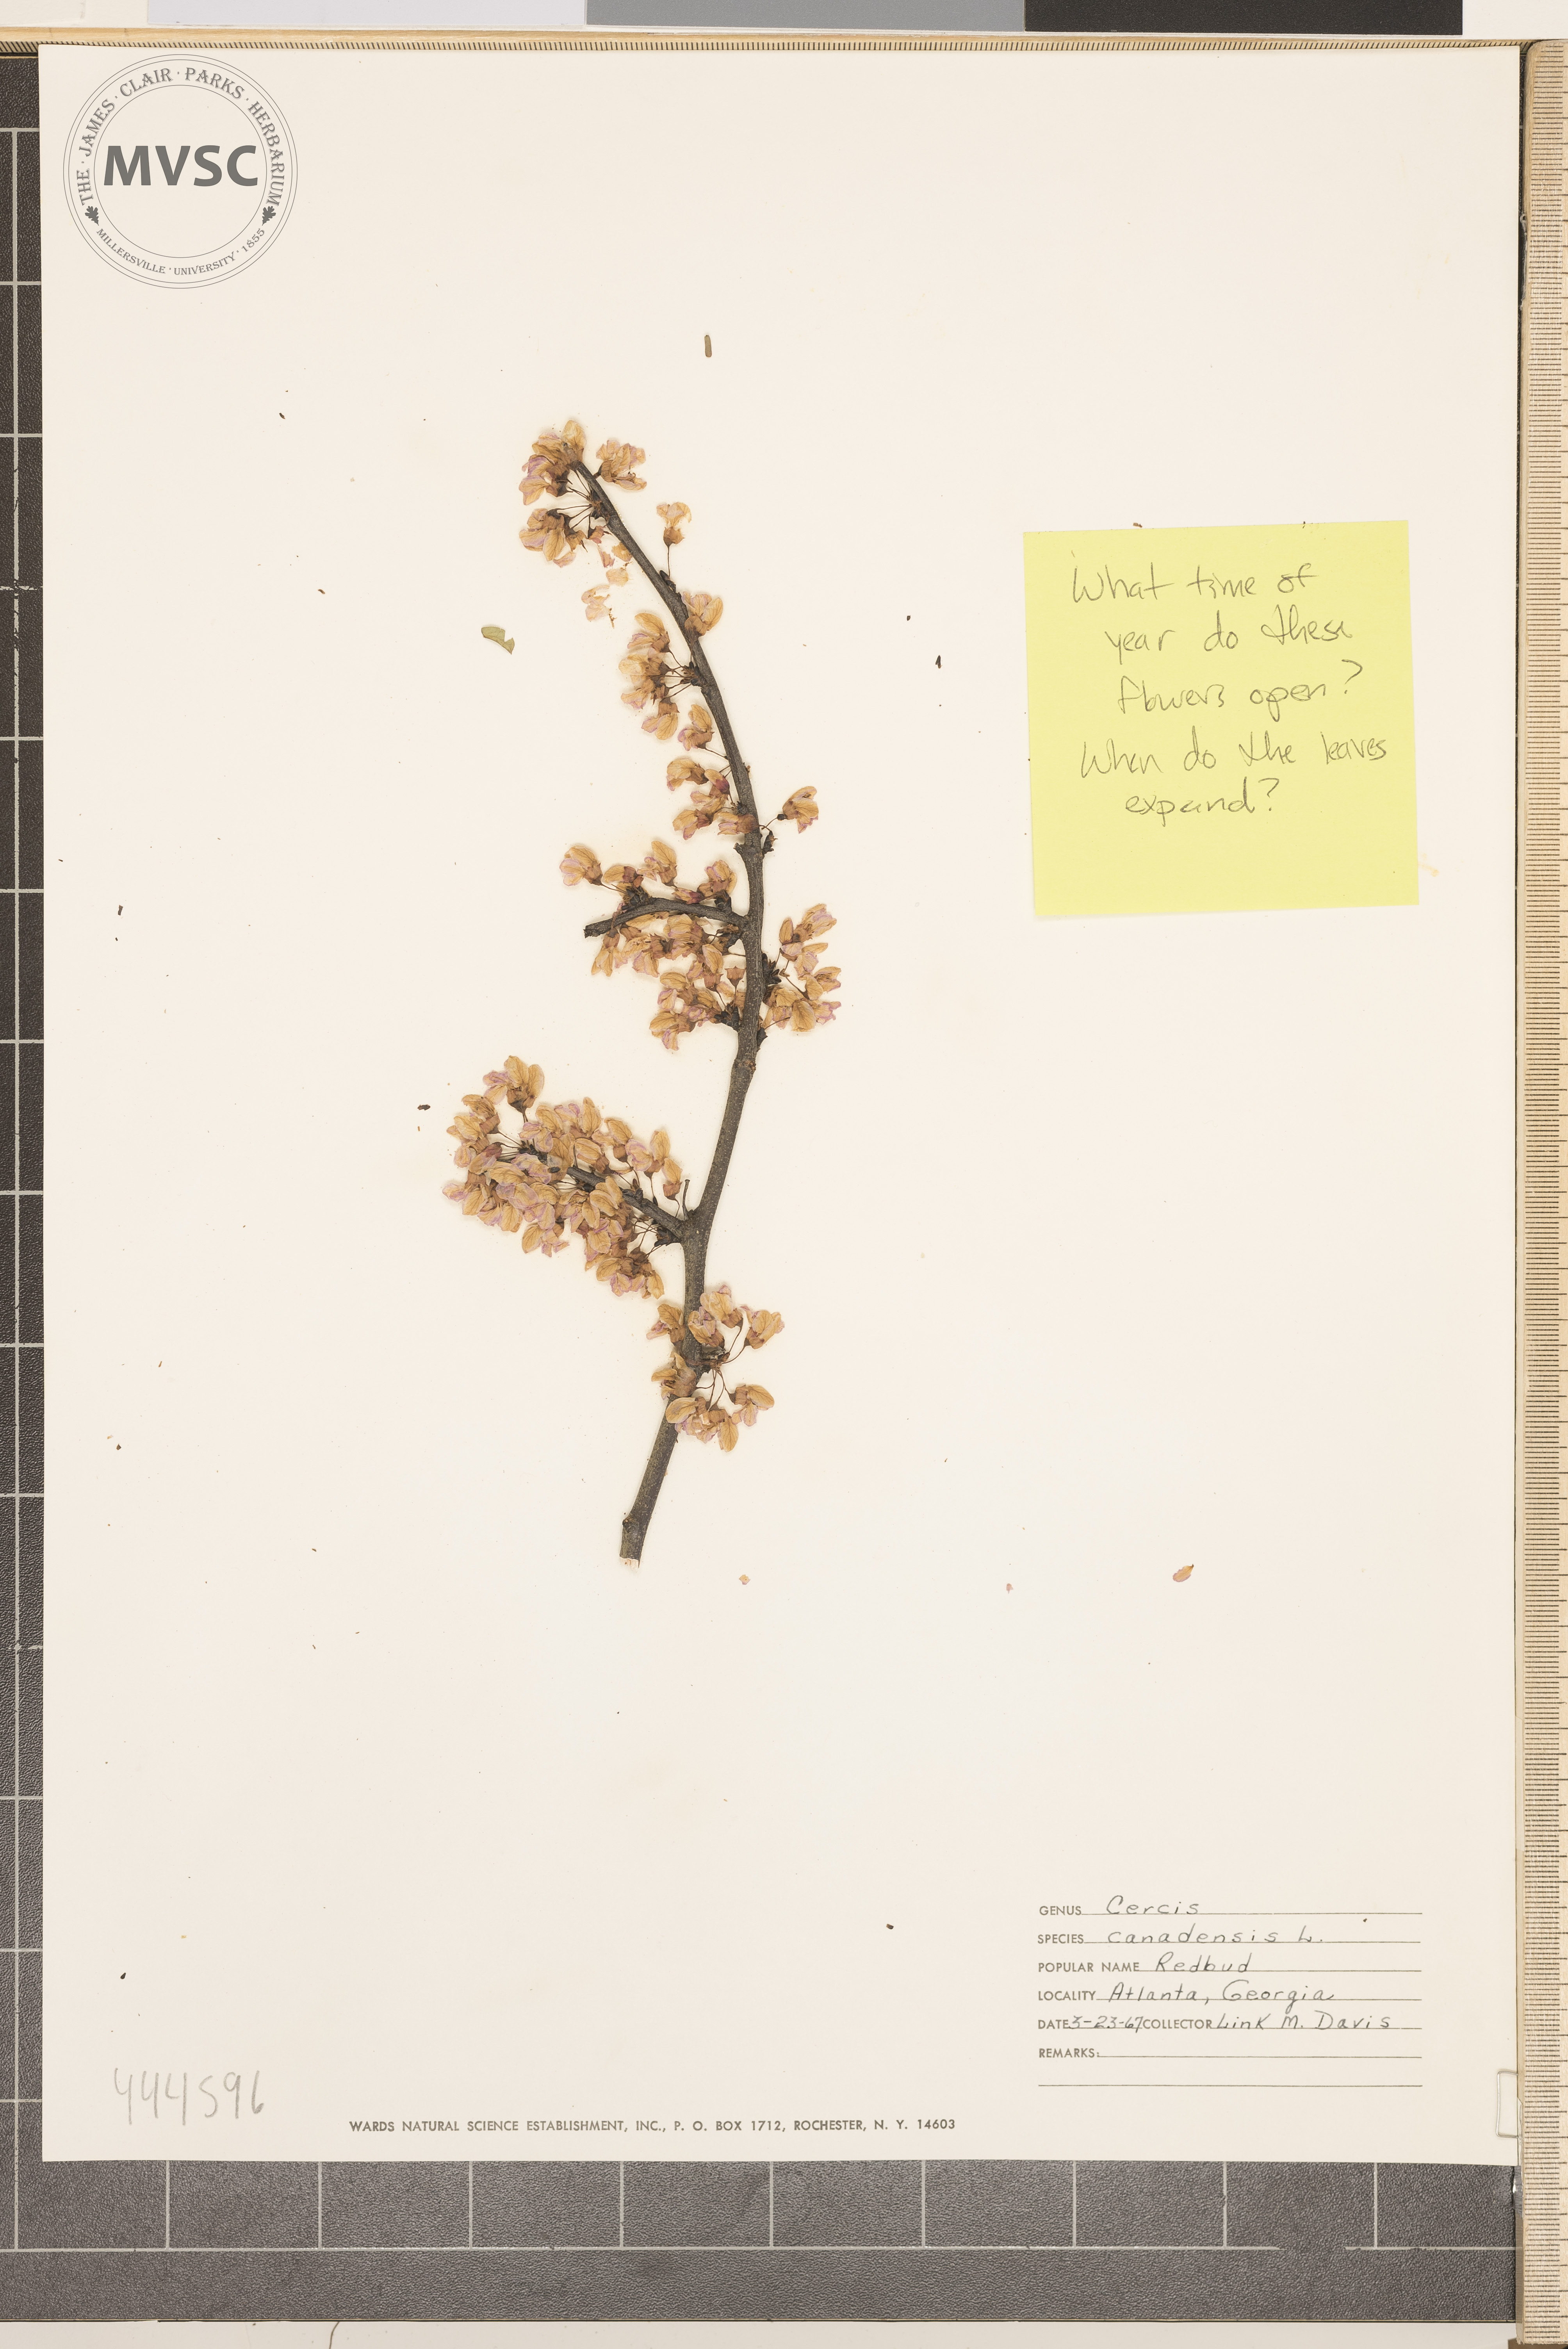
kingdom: Plantae
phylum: Tracheophyta
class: Magnoliopsida
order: Fabales
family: Fabaceae
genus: Cercis
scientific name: Cercis canadensis
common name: Redbud
